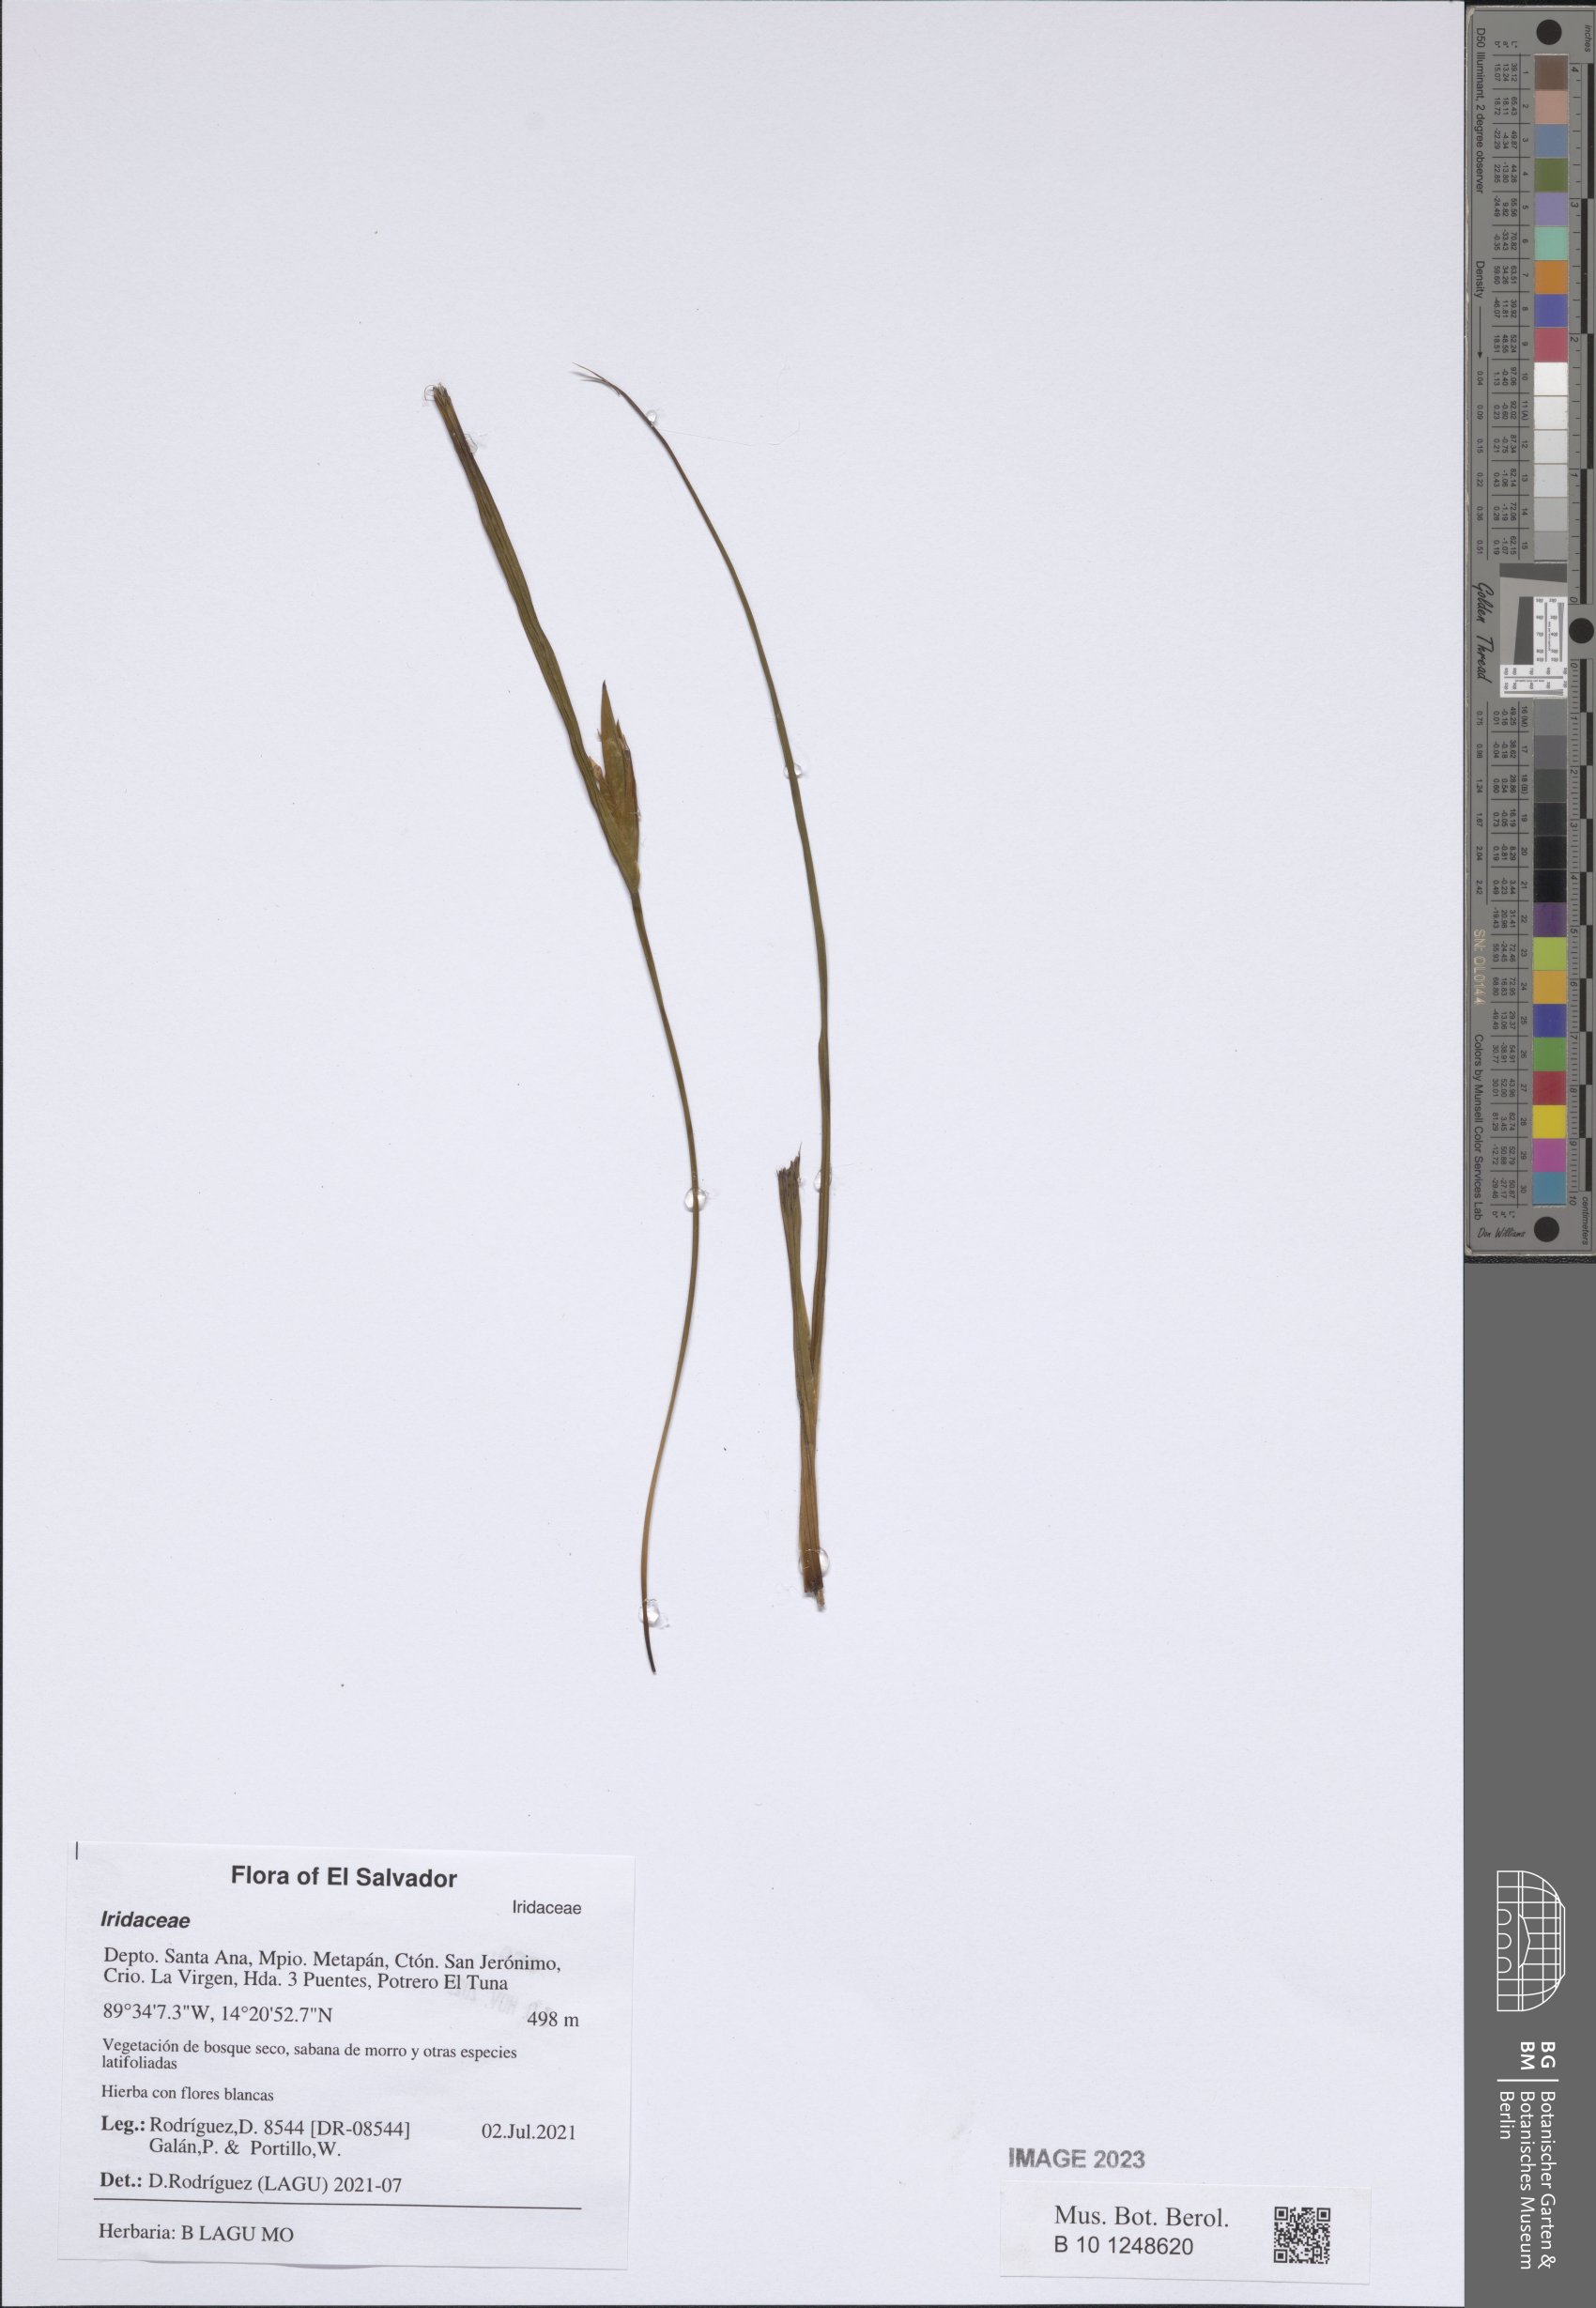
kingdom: Plantae
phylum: Tracheophyta
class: Liliopsida
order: Asparagales
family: Iridaceae
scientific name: Iridaceae
